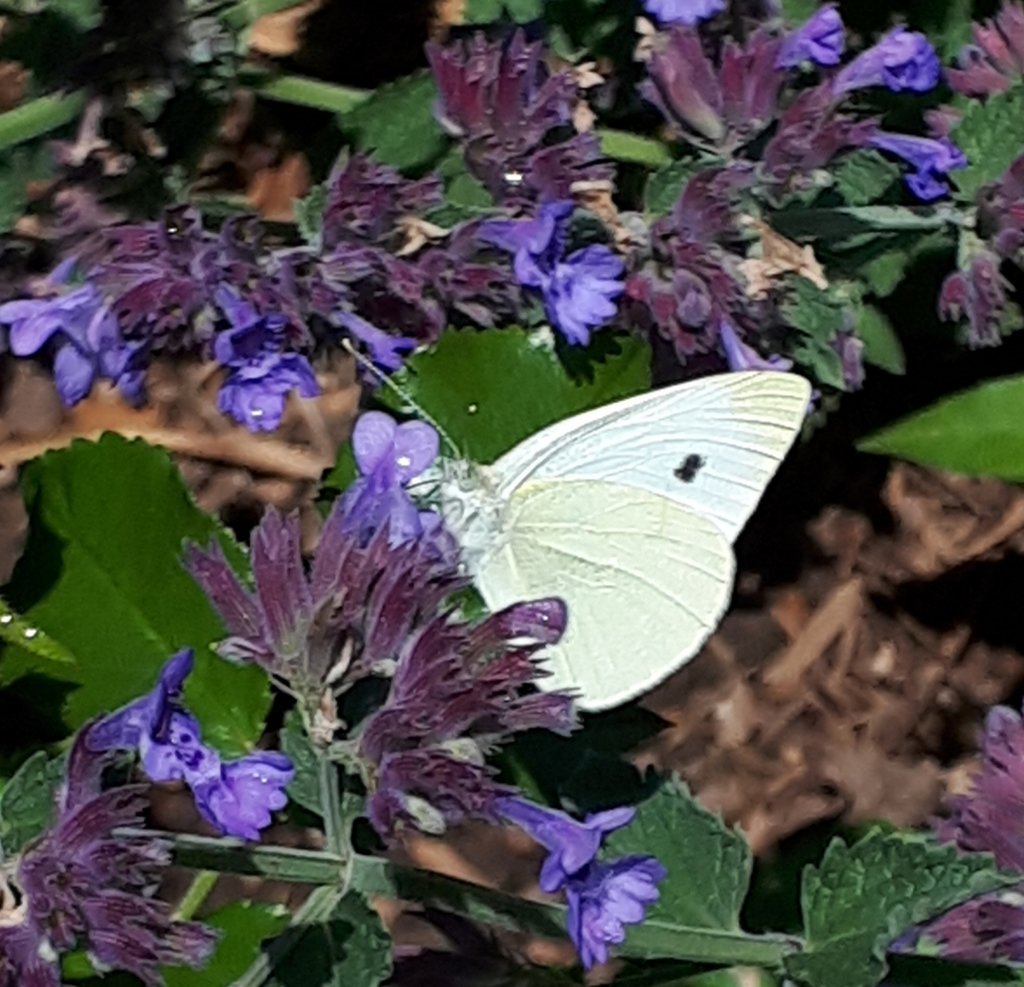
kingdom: Animalia
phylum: Arthropoda
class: Insecta
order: Lepidoptera
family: Pieridae
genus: Pieris
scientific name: Pieris rapae
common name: Cabbage White
